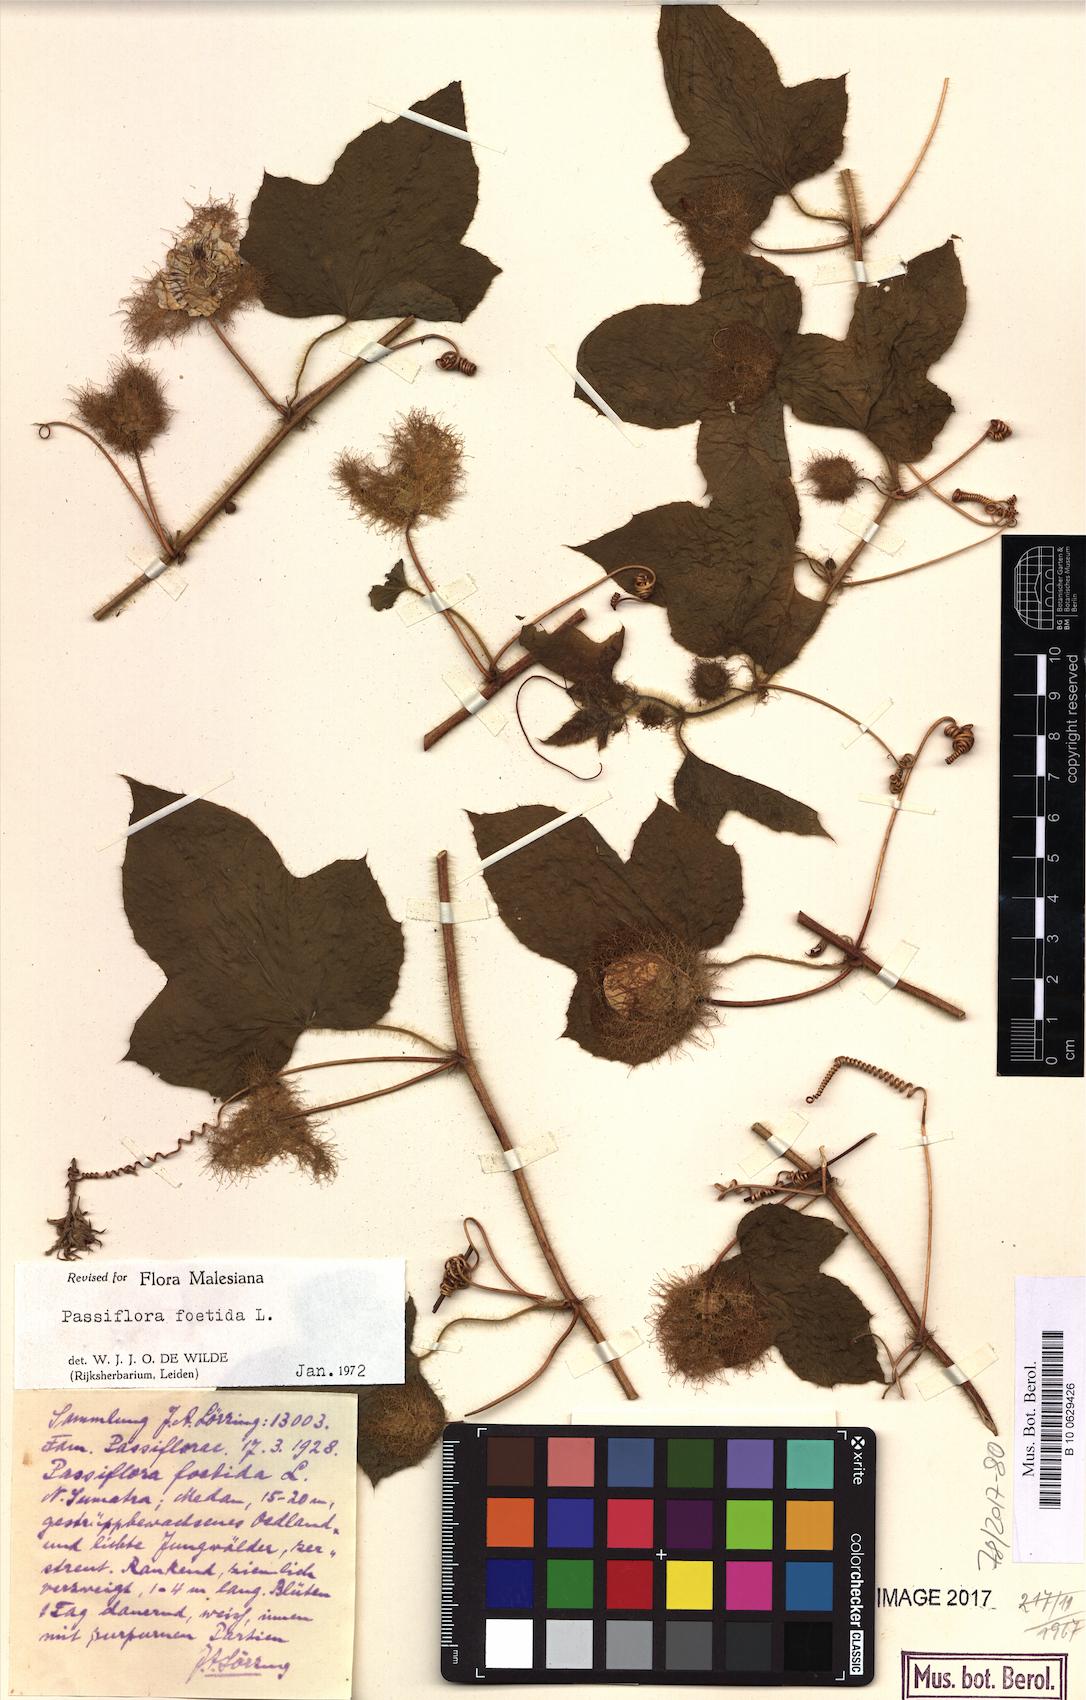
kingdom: Plantae
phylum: Tracheophyta
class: Magnoliopsida
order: Malpighiales
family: Passifloraceae
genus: Passiflora
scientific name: Passiflora foetida
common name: Fetid passionflower
